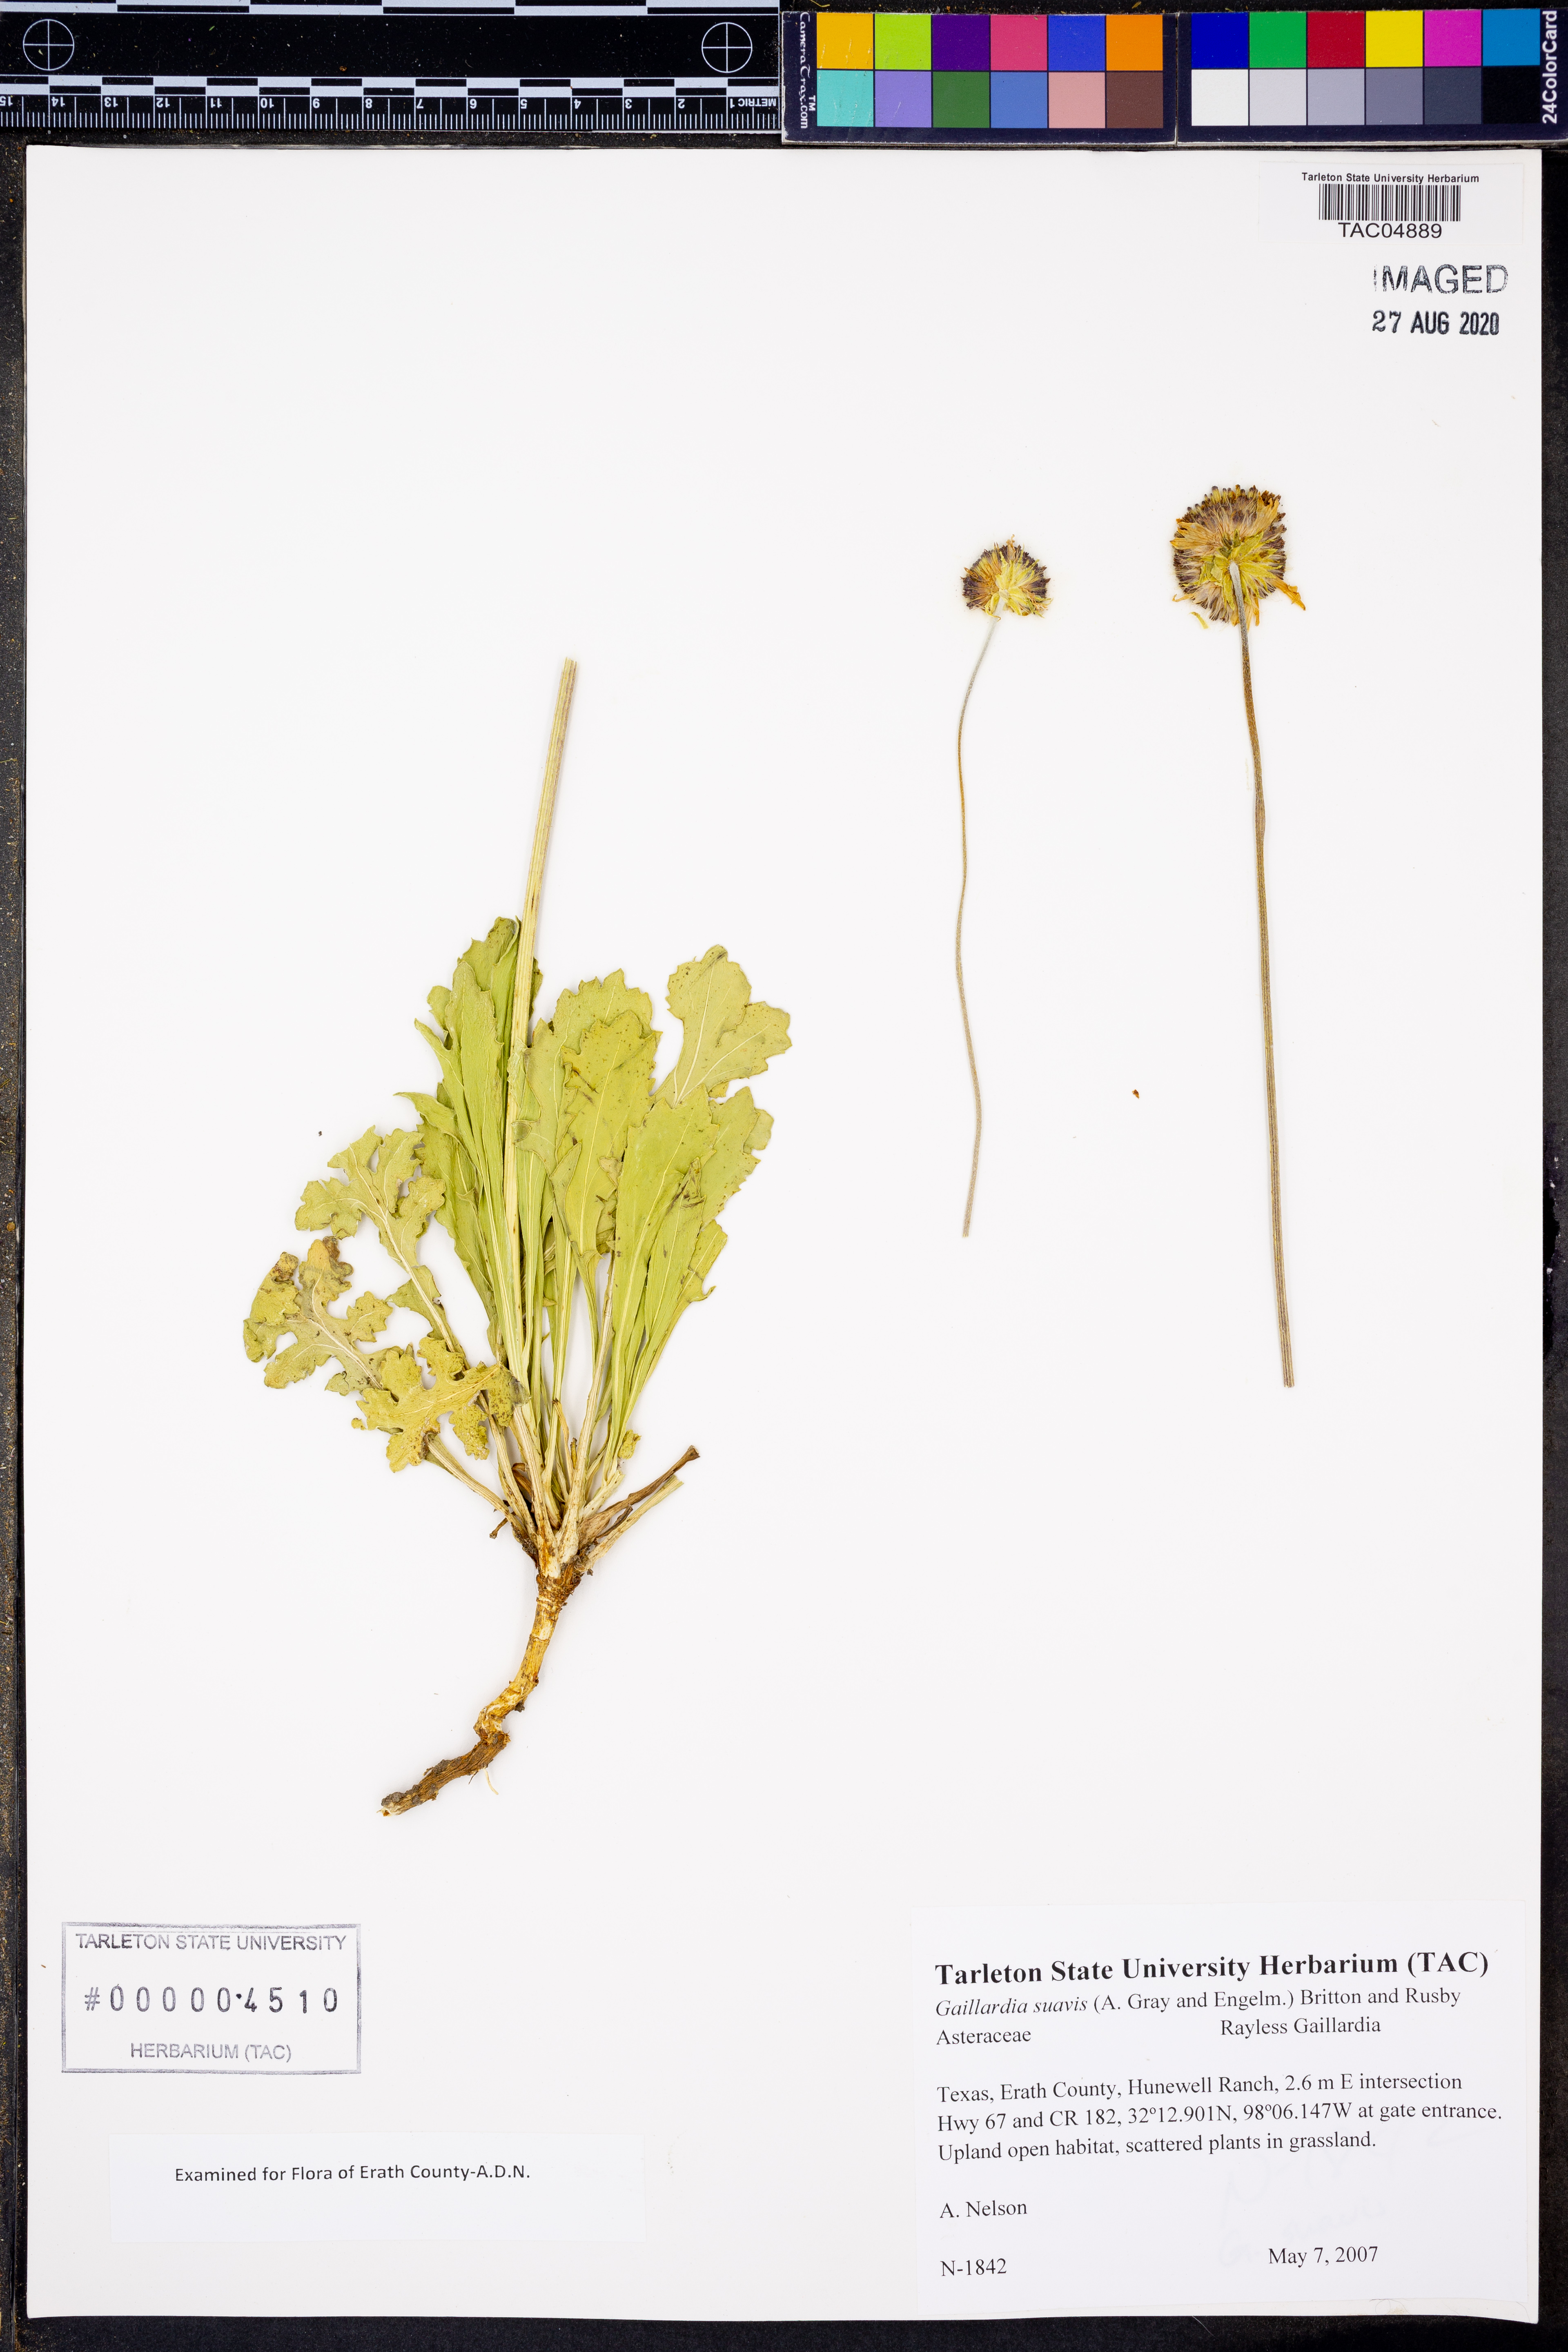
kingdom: Plantae
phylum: Tracheophyta
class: Magnoliopsida
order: Asterales
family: Asteraceae
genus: Gaillardia
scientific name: Gaillardia suavis
